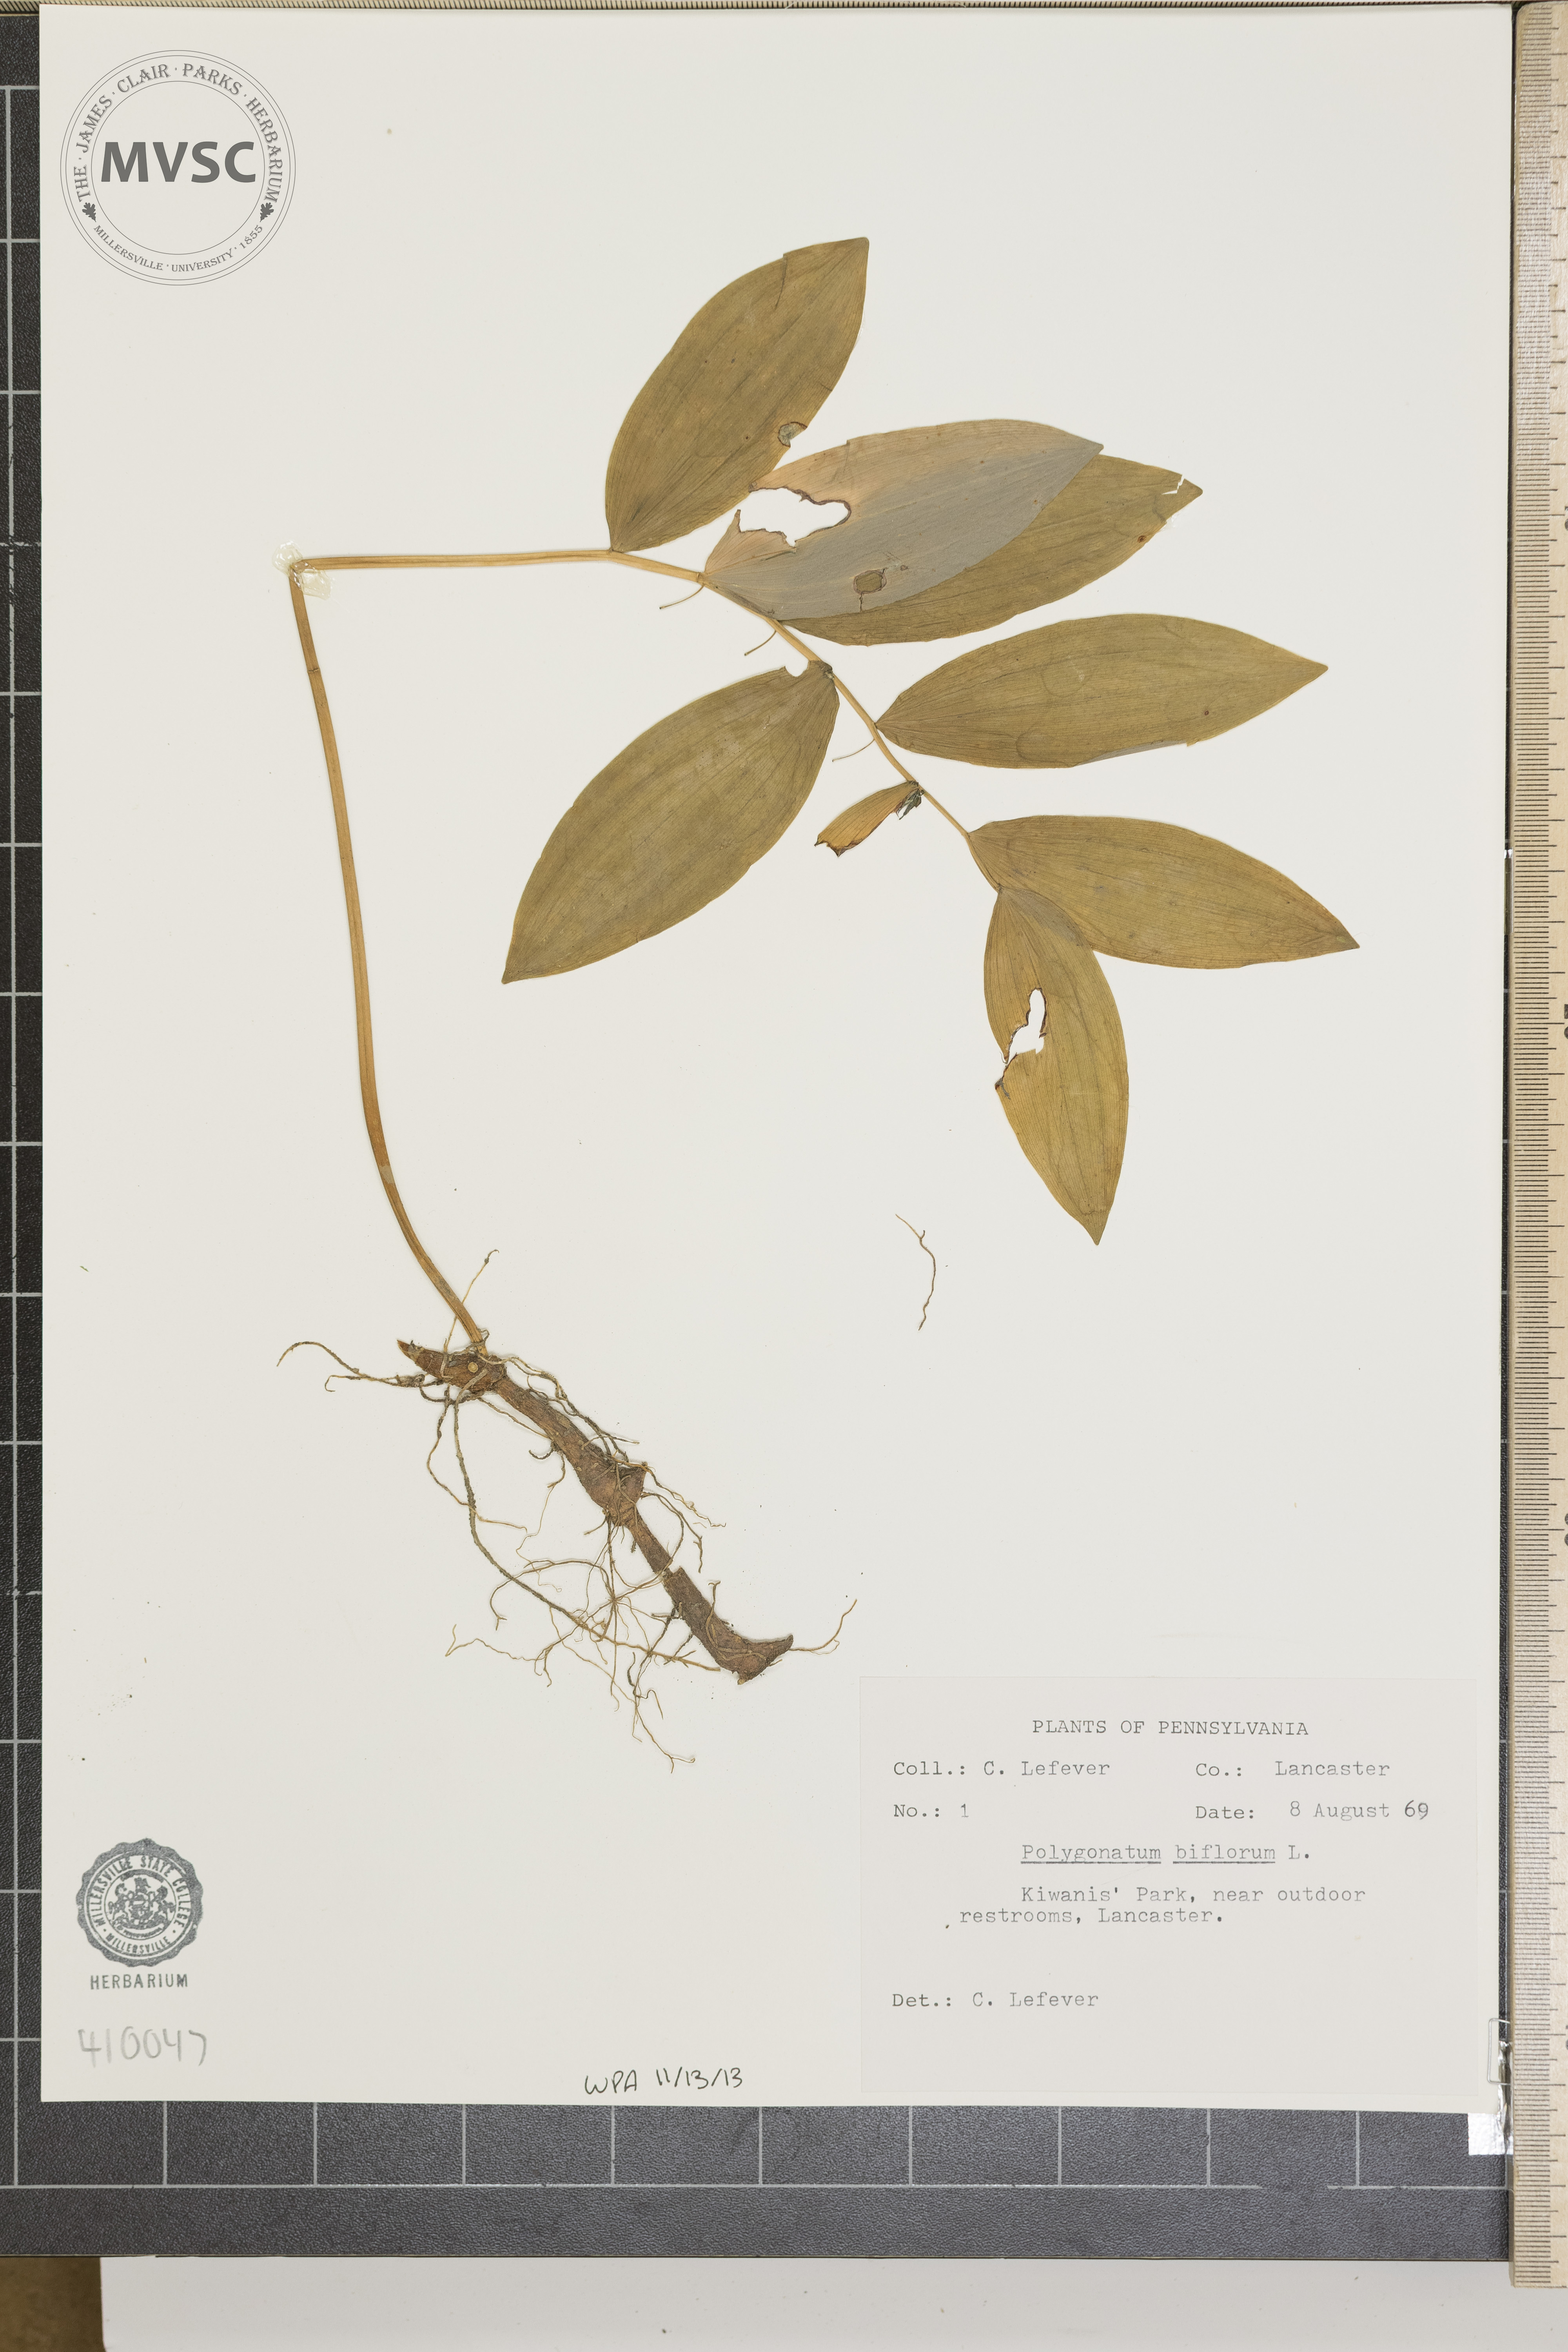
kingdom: Plantae
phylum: Tracheophyta
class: Liliopsida
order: Asparagales
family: Asparagaceae
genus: Polygonatum
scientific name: Polygonatum biflorum
